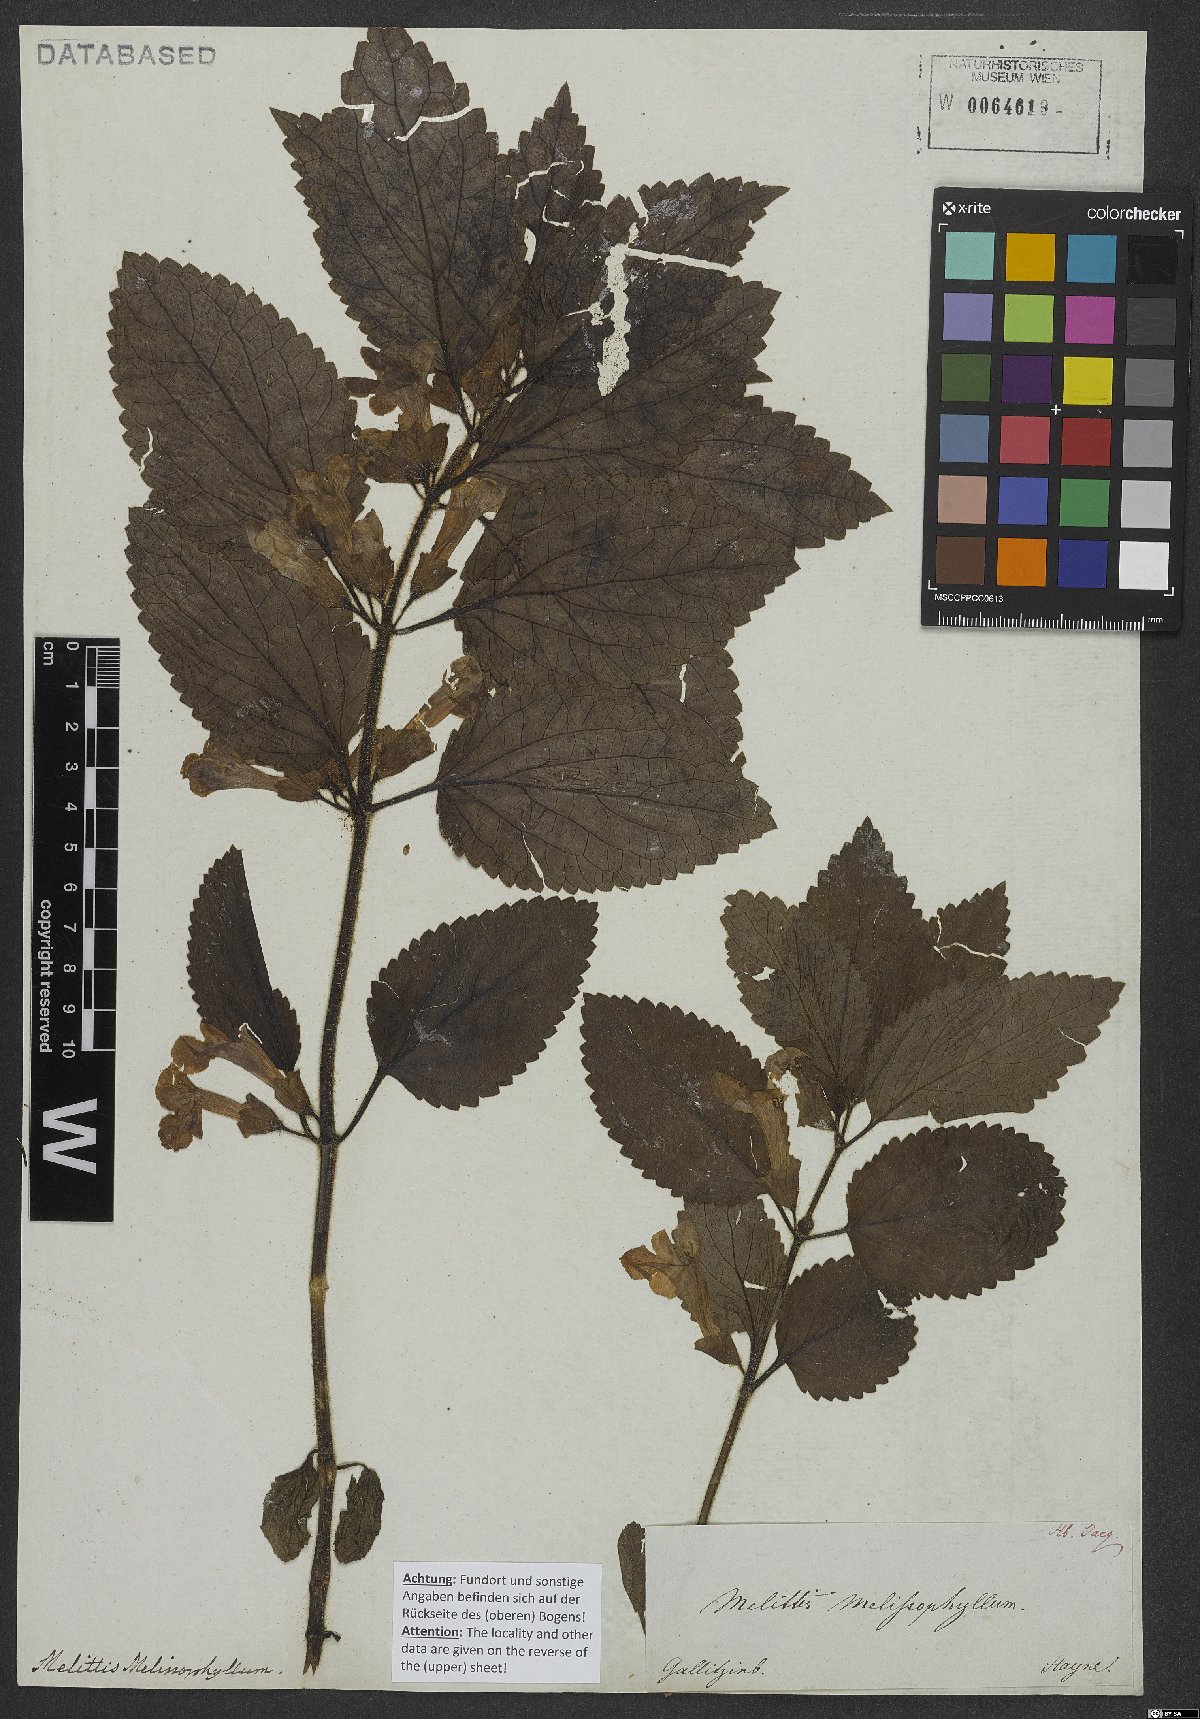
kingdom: Plantae
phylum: Tracheophyta
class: Magnoliopsida
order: Lamiales
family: Lamiaceae
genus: Melittis
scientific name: Melittis melissophyllum
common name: Bastard balm
